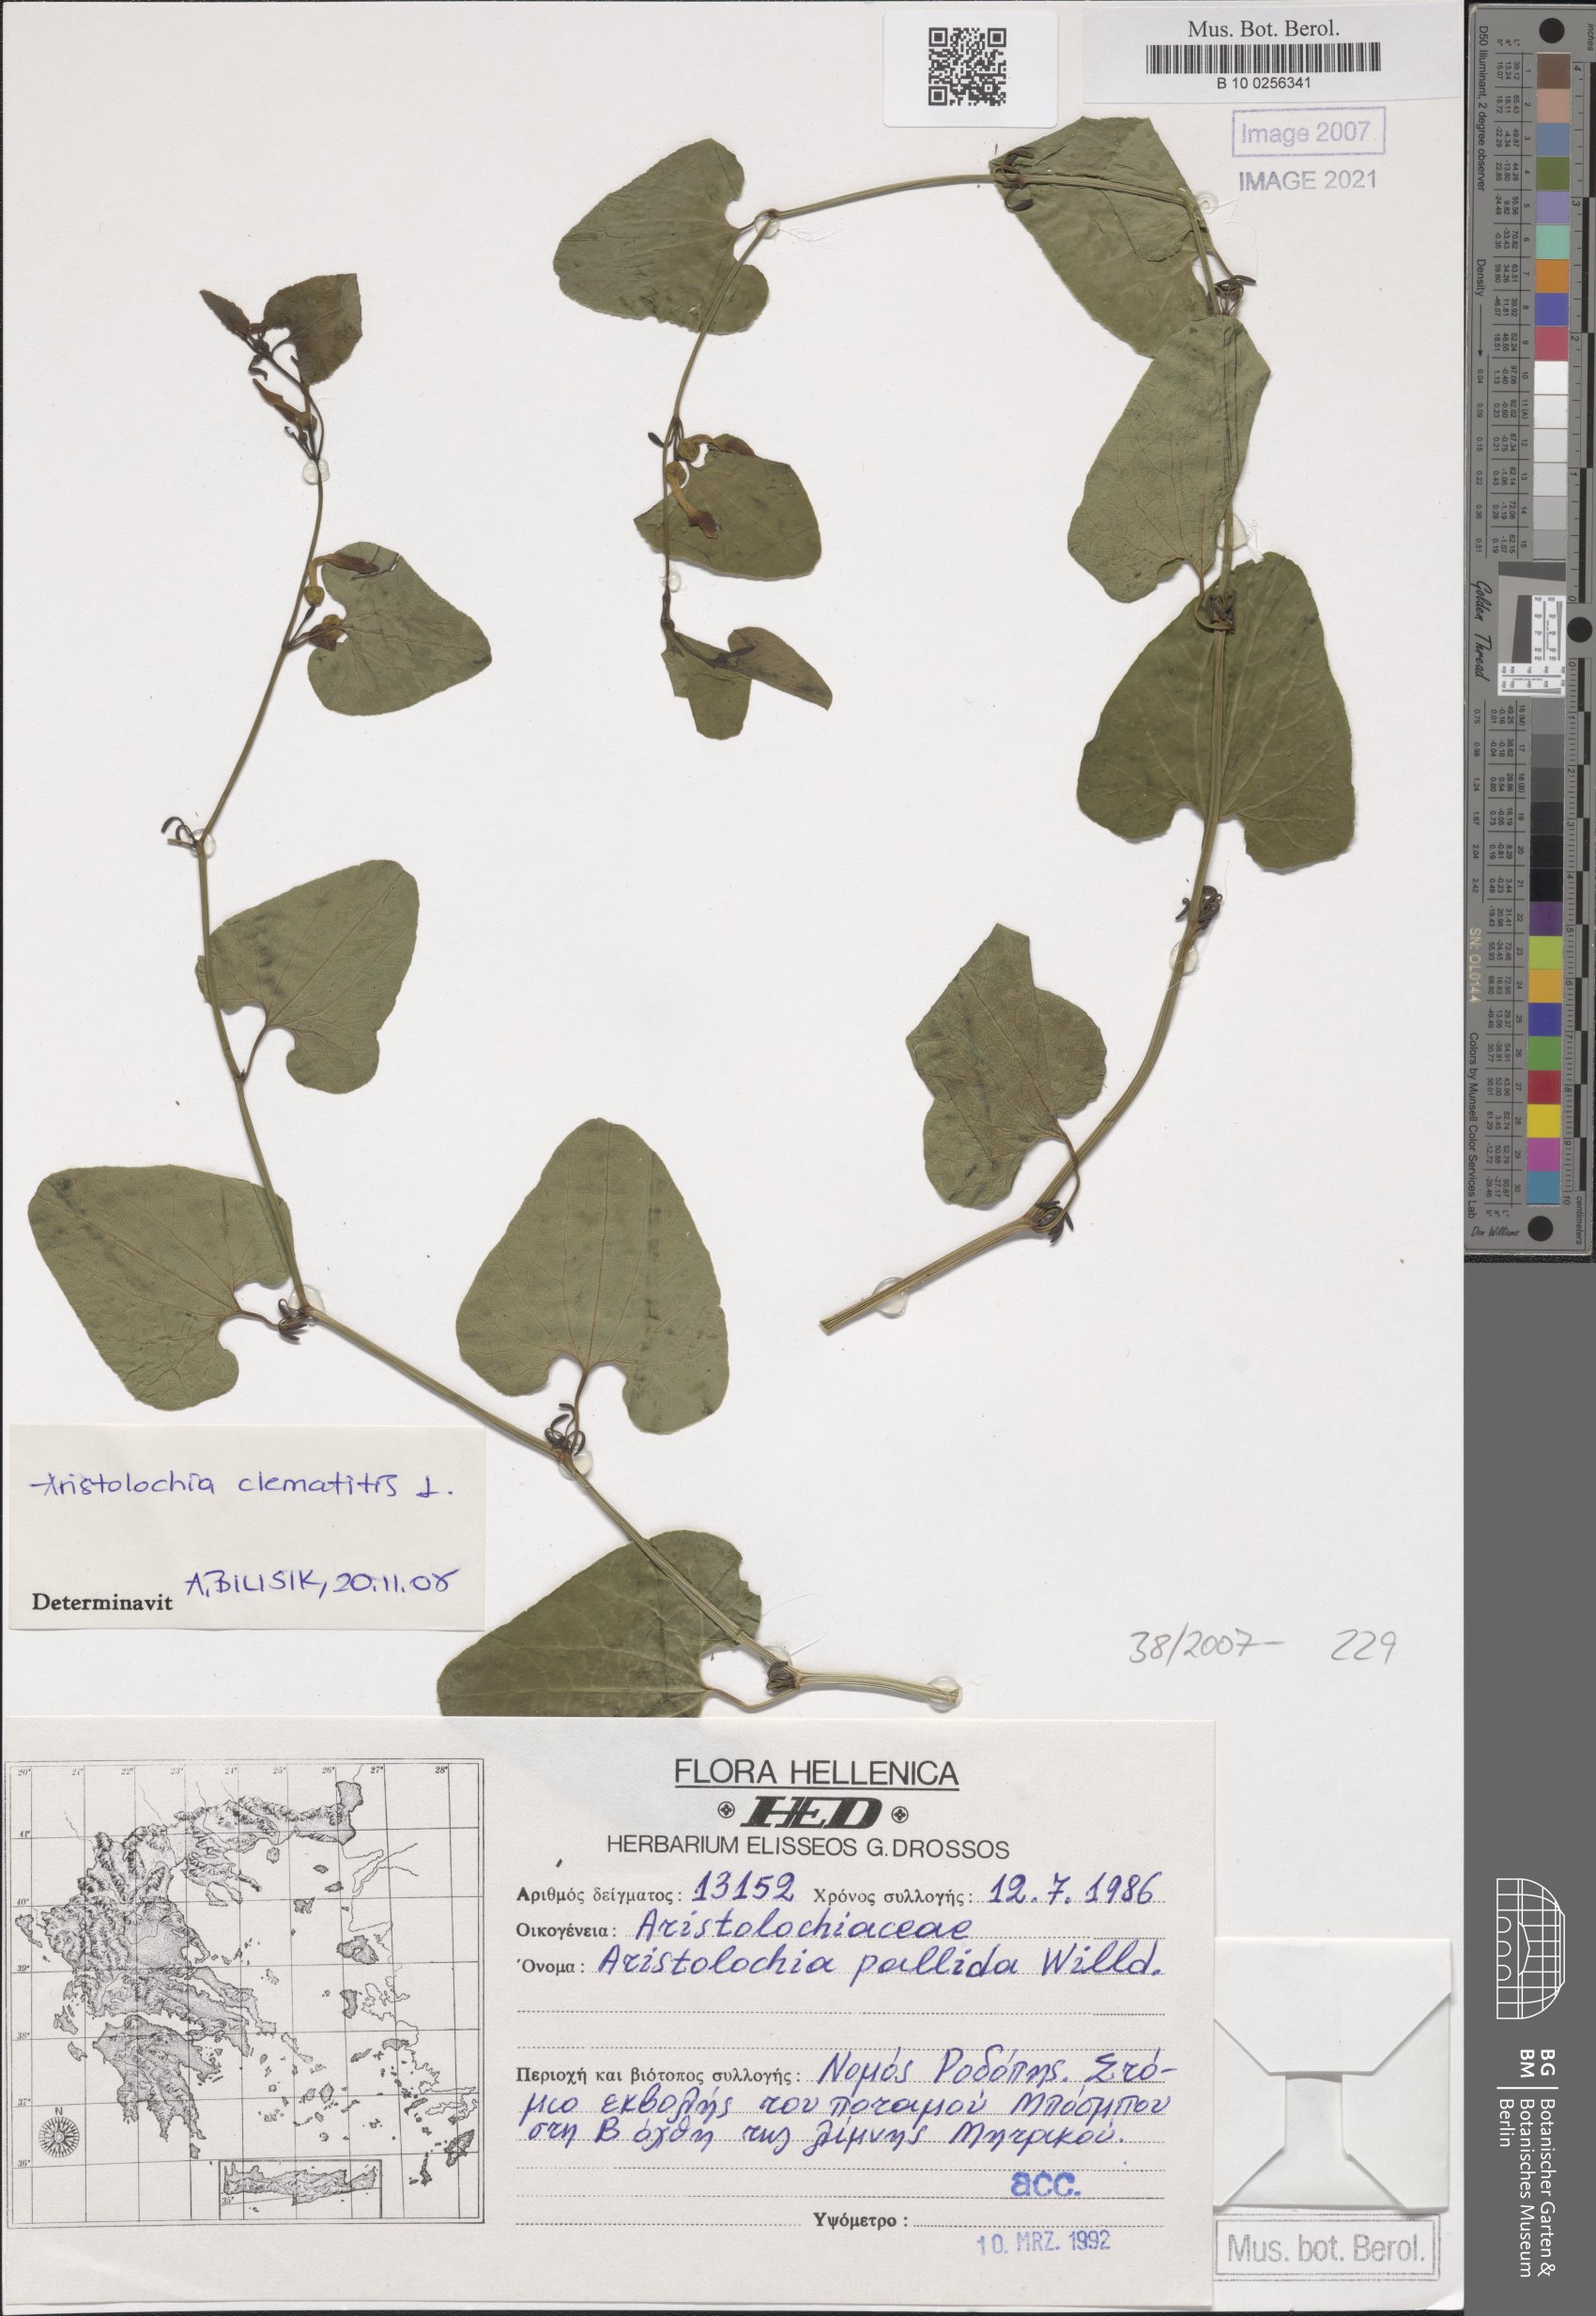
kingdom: Plantae
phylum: Tracheophyta
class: Magnoliopsida
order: Piperales
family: Aristolochiaceae
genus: Aristolochia
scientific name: Aristolochia clematitis
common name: Birthwort
